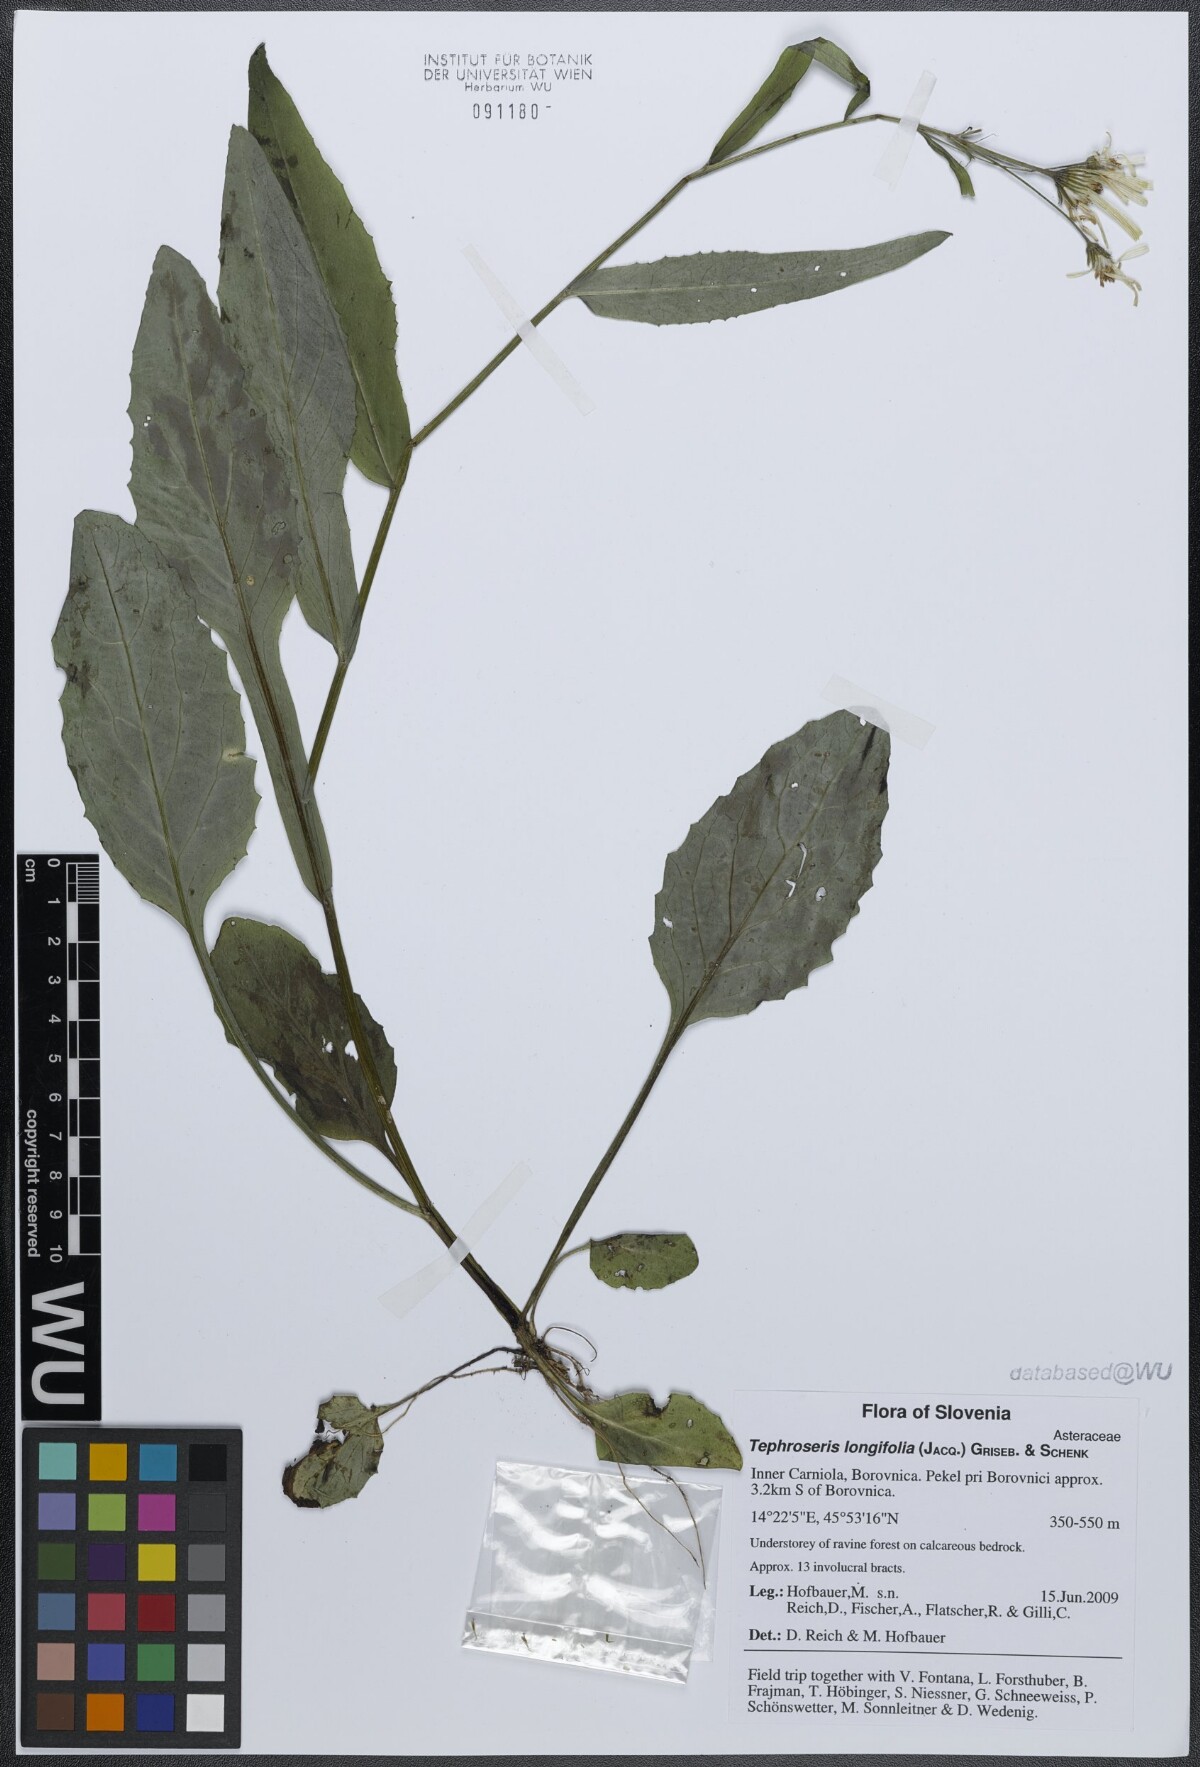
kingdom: Plantae
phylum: Tracheophyta
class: Magnoliopsida
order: Asterales
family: Asteraceae
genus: Tephroseris
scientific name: Tephroseris longifolia
